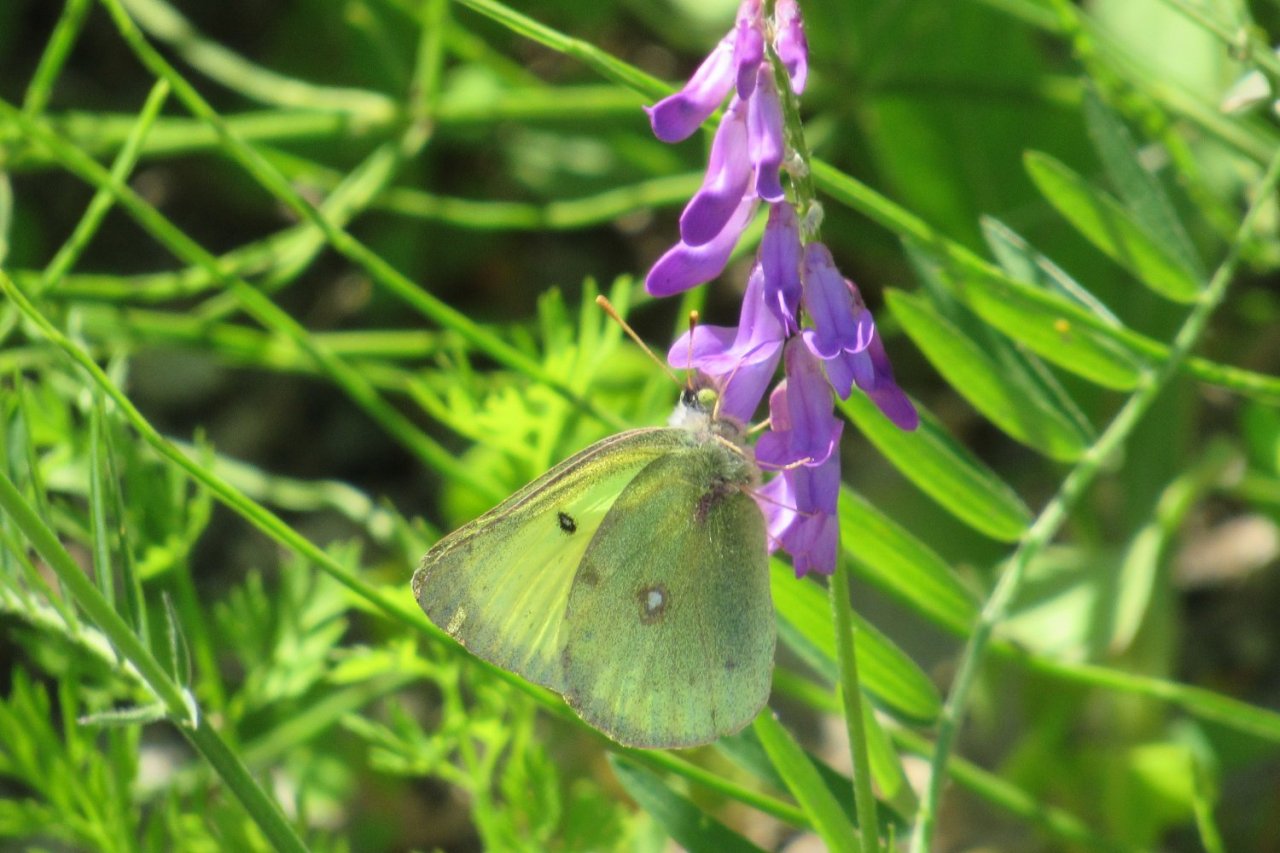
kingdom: Animalia
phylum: Arthropoda
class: Insecta
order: Lepidoptera
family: Pieridae
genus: Colias
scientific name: Colias philodice
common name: Clouded Sulphur
